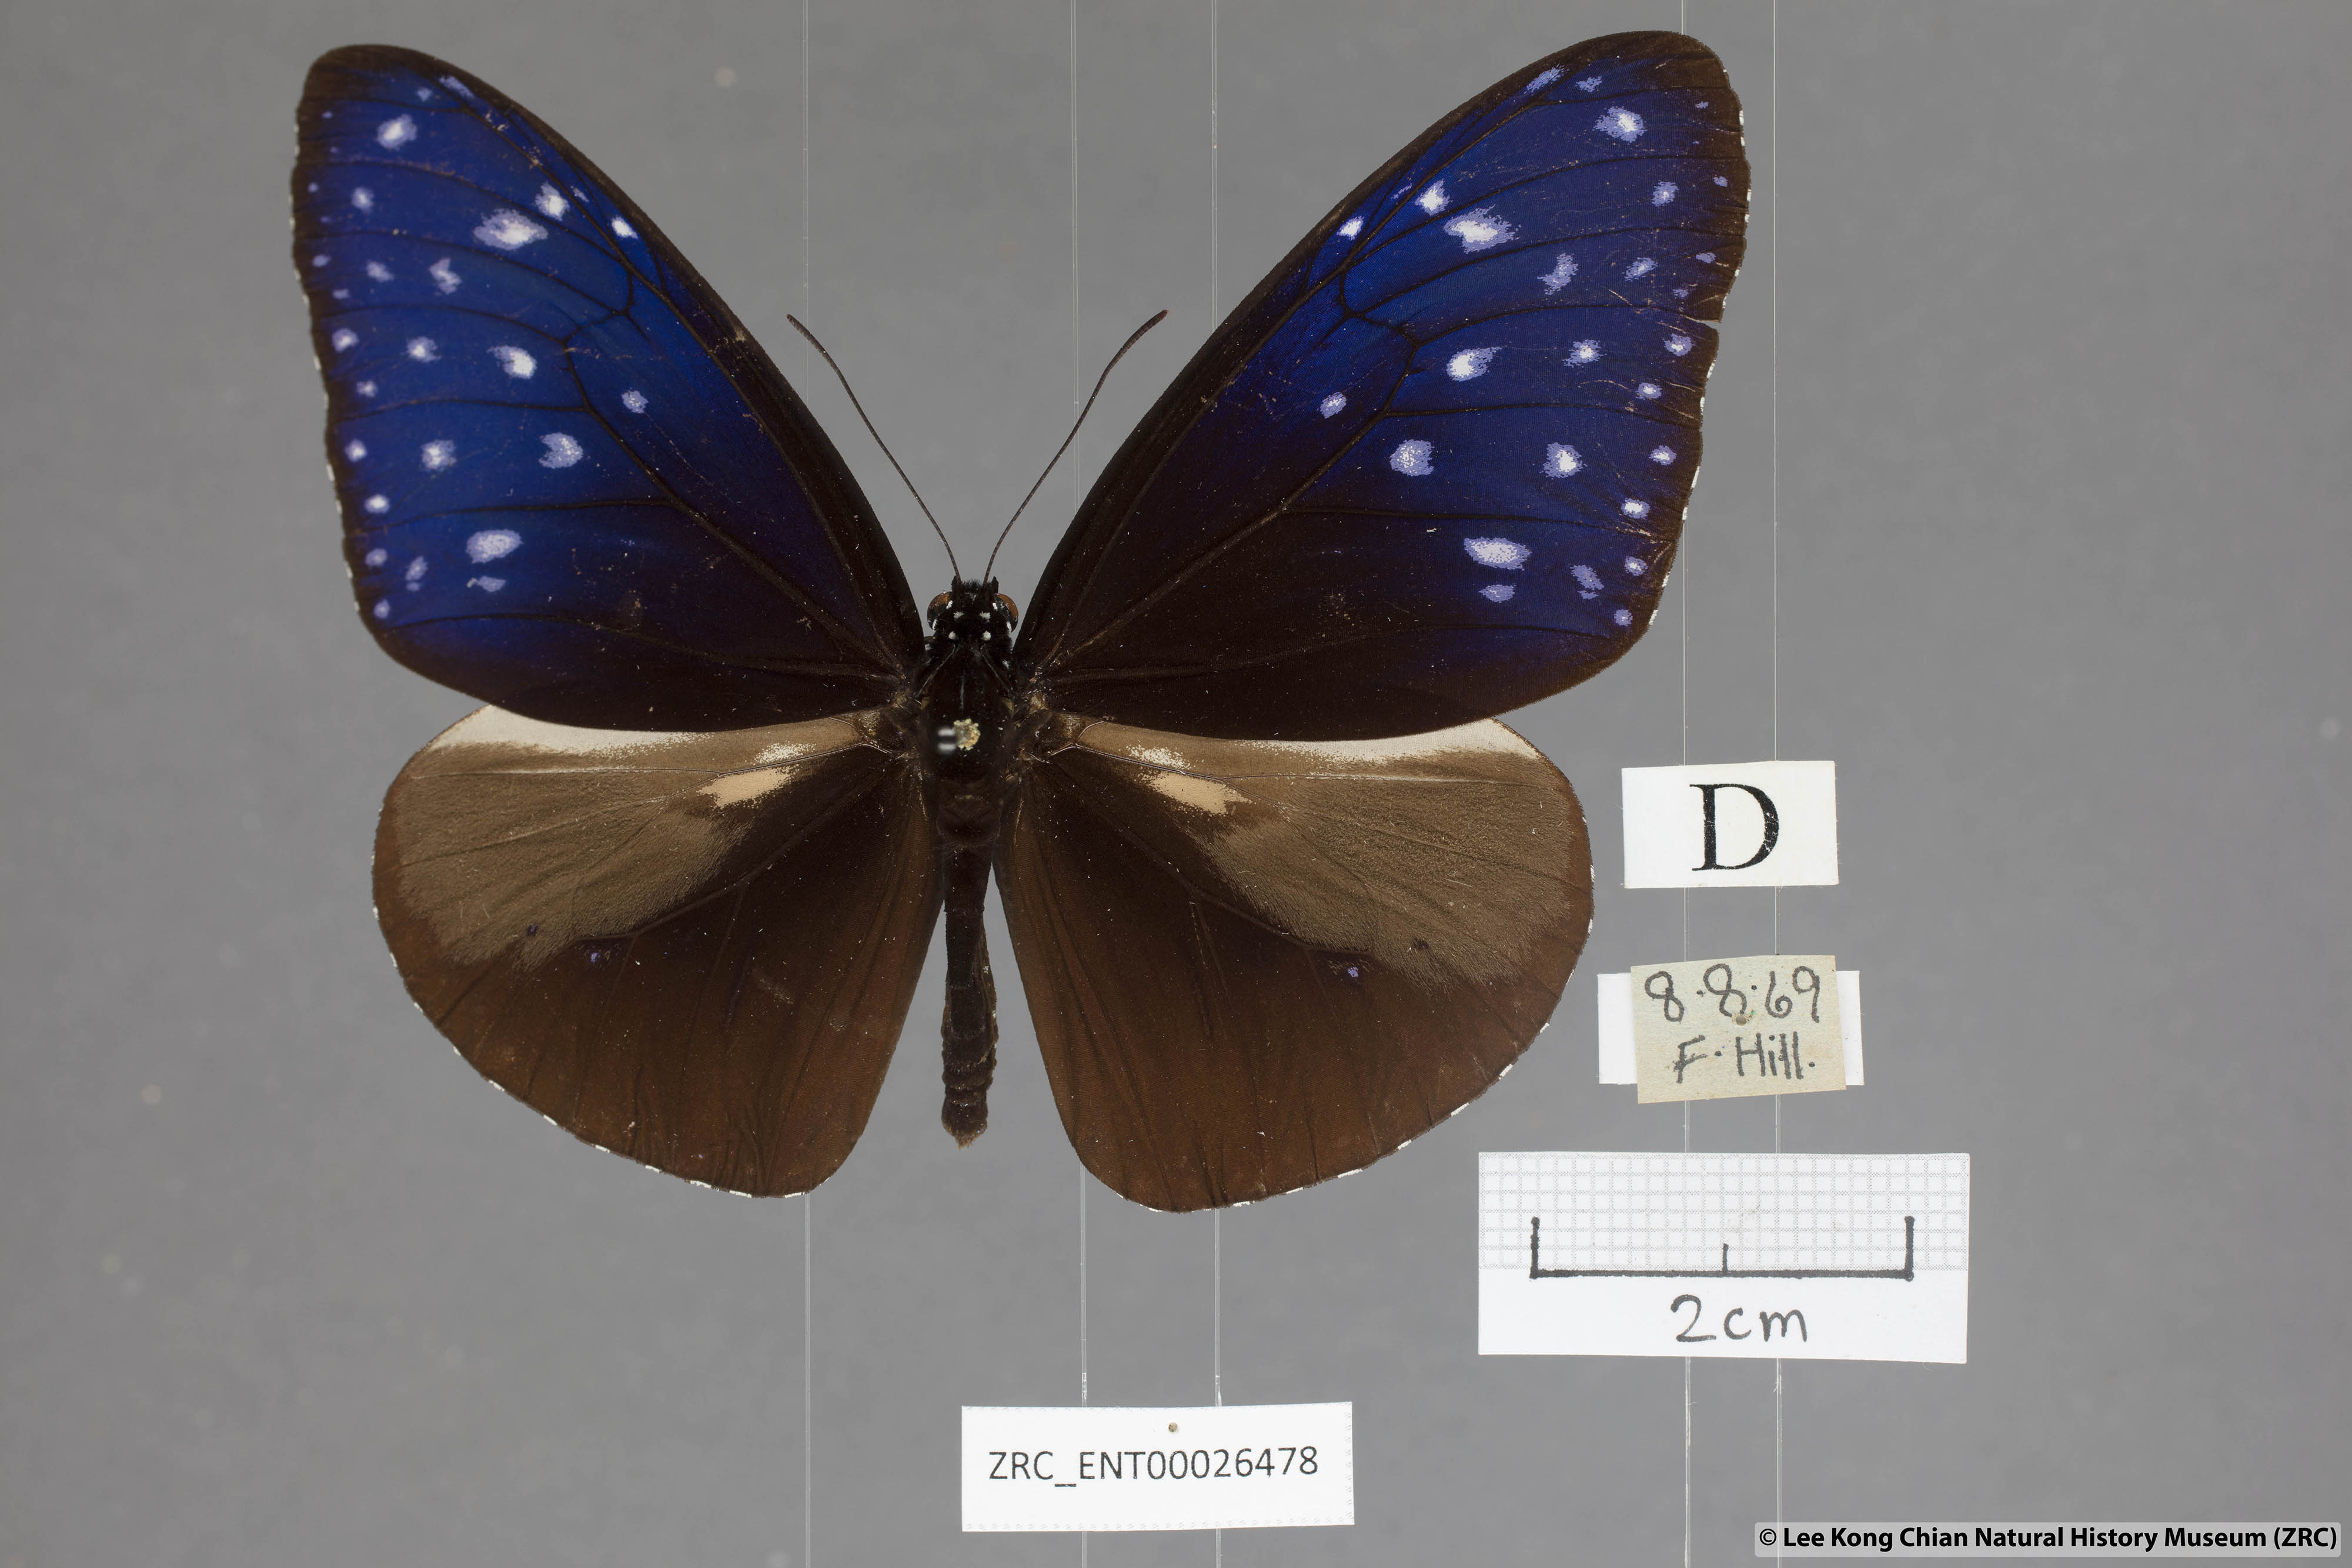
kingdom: Animalia
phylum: Arthropoda
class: Insecta
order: Lepidoptera
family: Nymphalidae
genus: Euploea
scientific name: Euploea mulciber
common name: Striped blue crow butterfly
